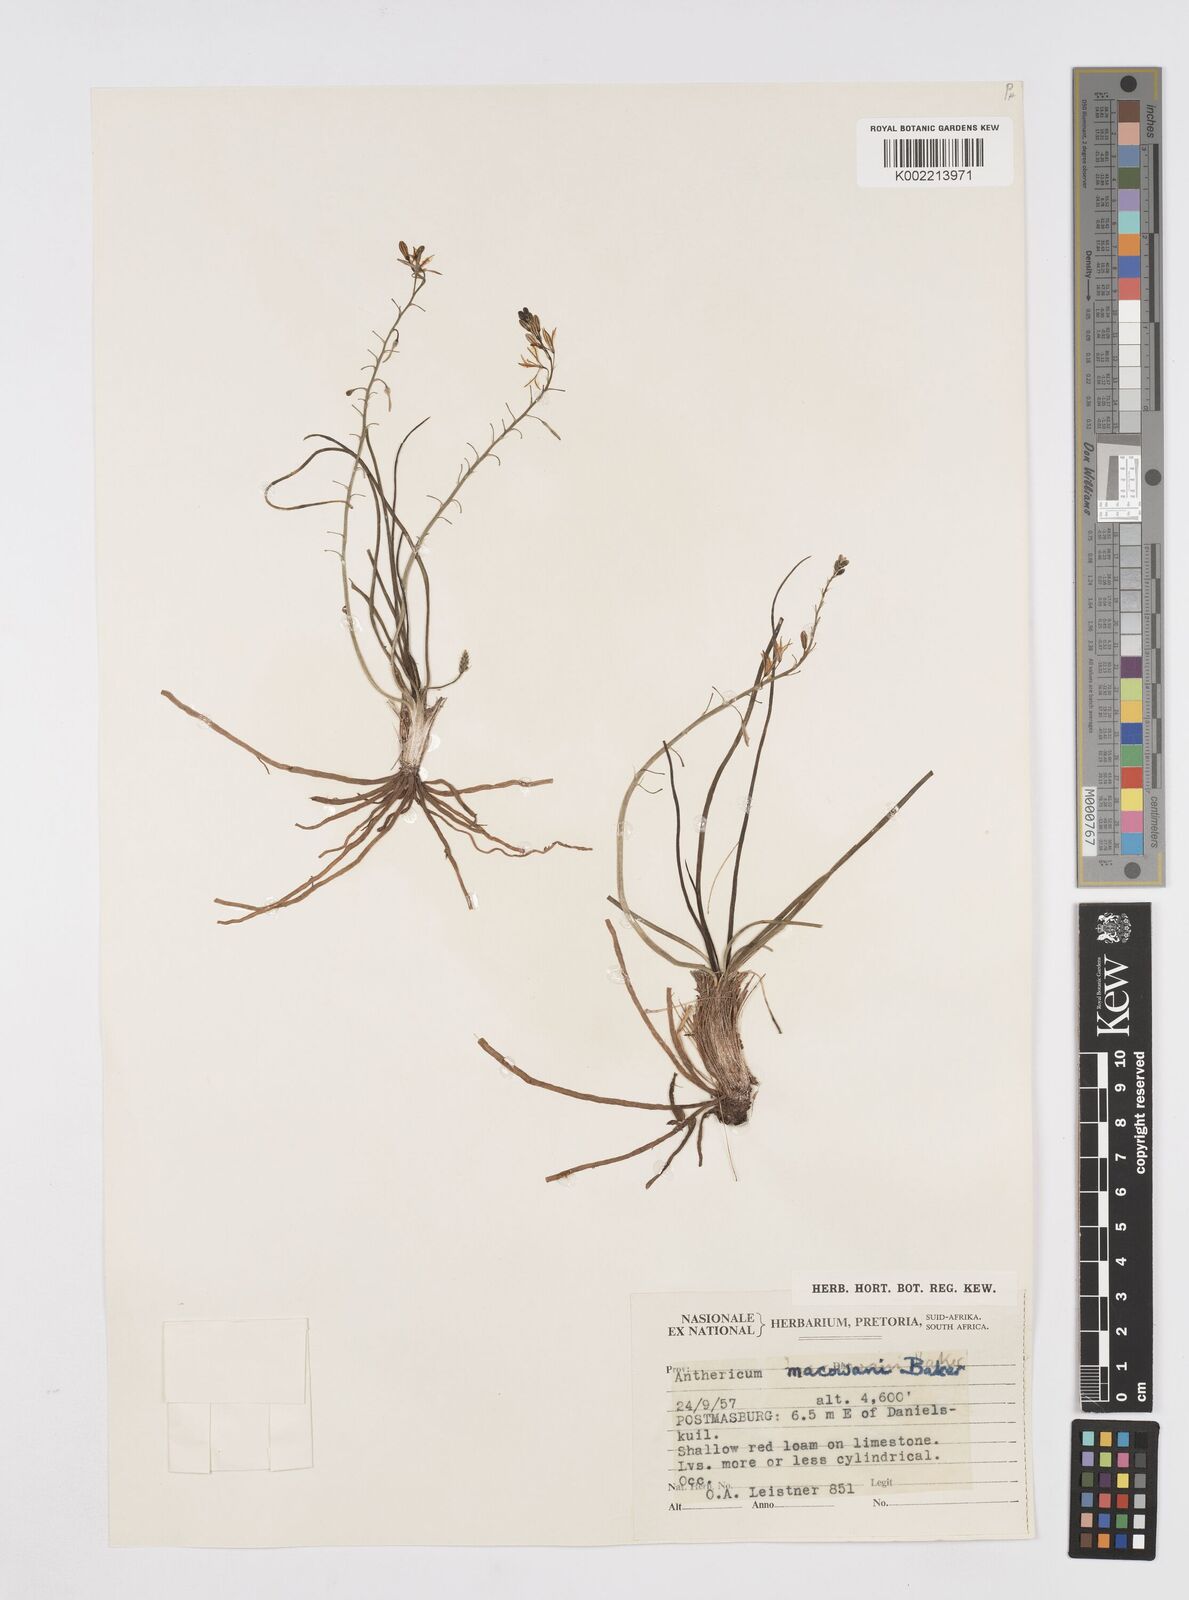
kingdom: Plantae
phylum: Tracheophyta
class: Liliopsida
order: Asparagales
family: Asphodelaceae
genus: Trachyandra
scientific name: Trachyandra asperata
